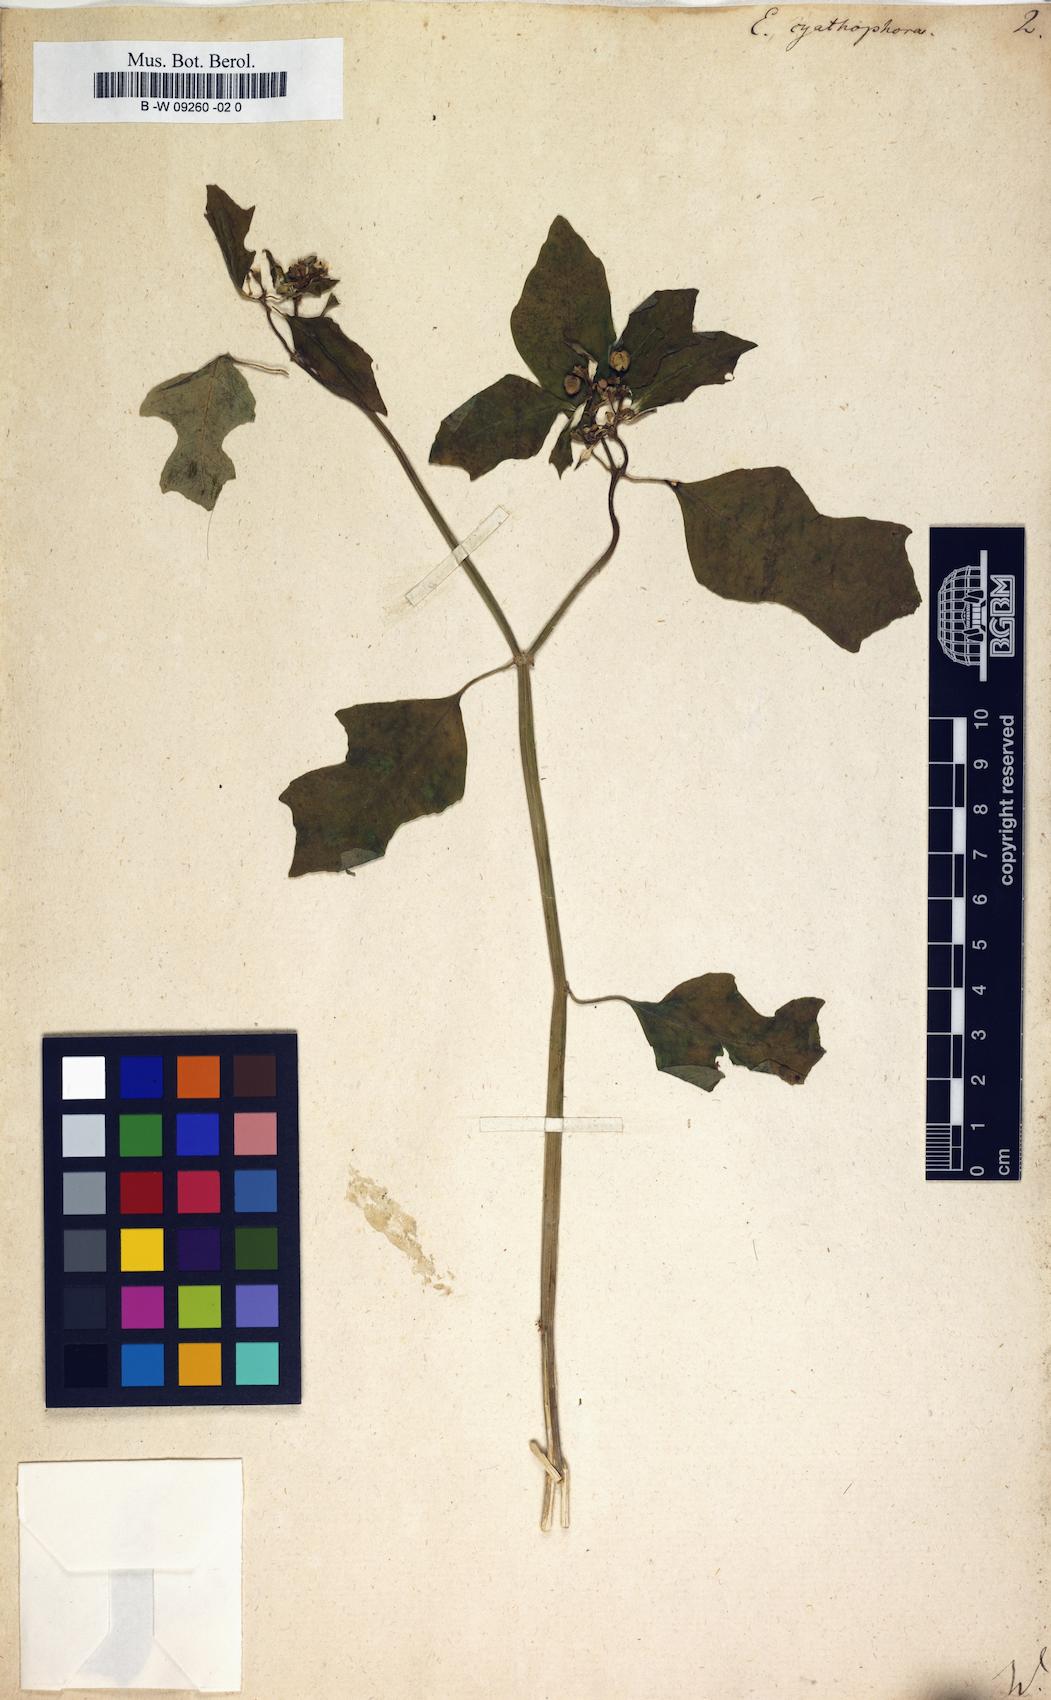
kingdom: Plantae
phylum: Tracheophyta
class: Magnoliopsida
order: Malpighiales
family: Euphorbiaceae
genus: Euphorbia
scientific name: Euphorbia heterophylla
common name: Mexican fireplant
